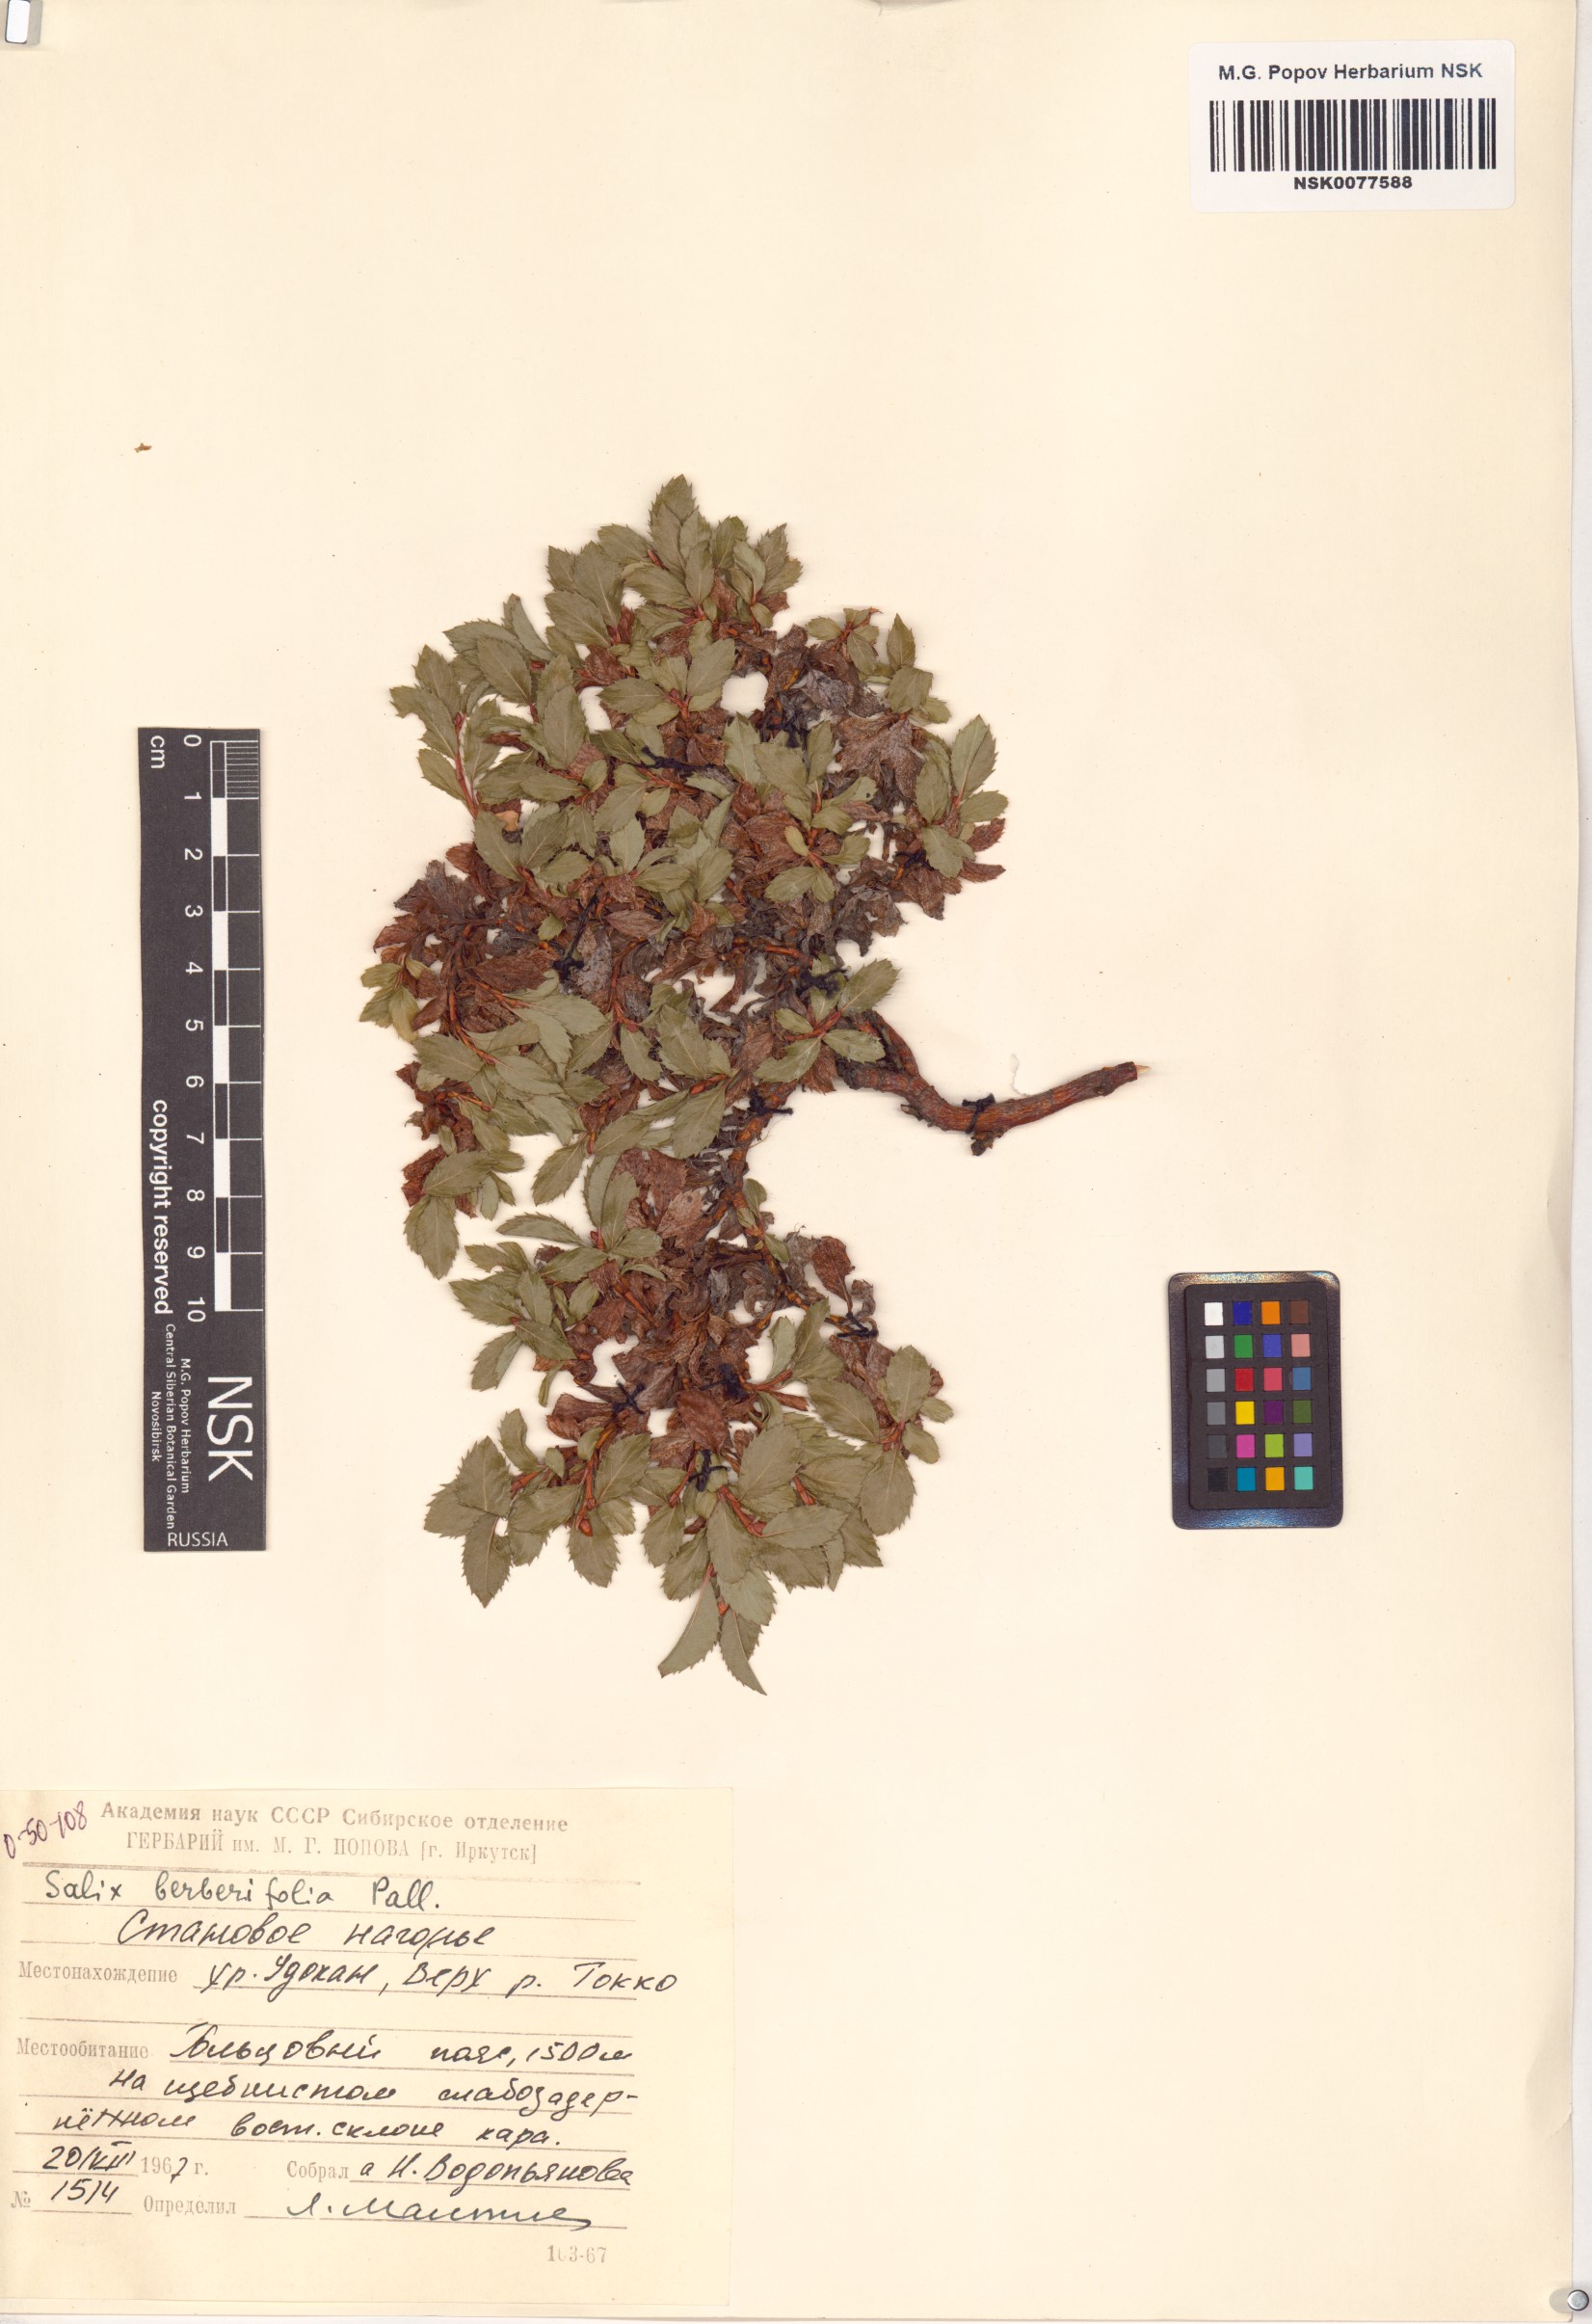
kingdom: Plantae
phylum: Tracheophyta
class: Magnoliopsida
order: Malpighiales
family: Salicaceae
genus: Salix
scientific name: Salix berberifolia
